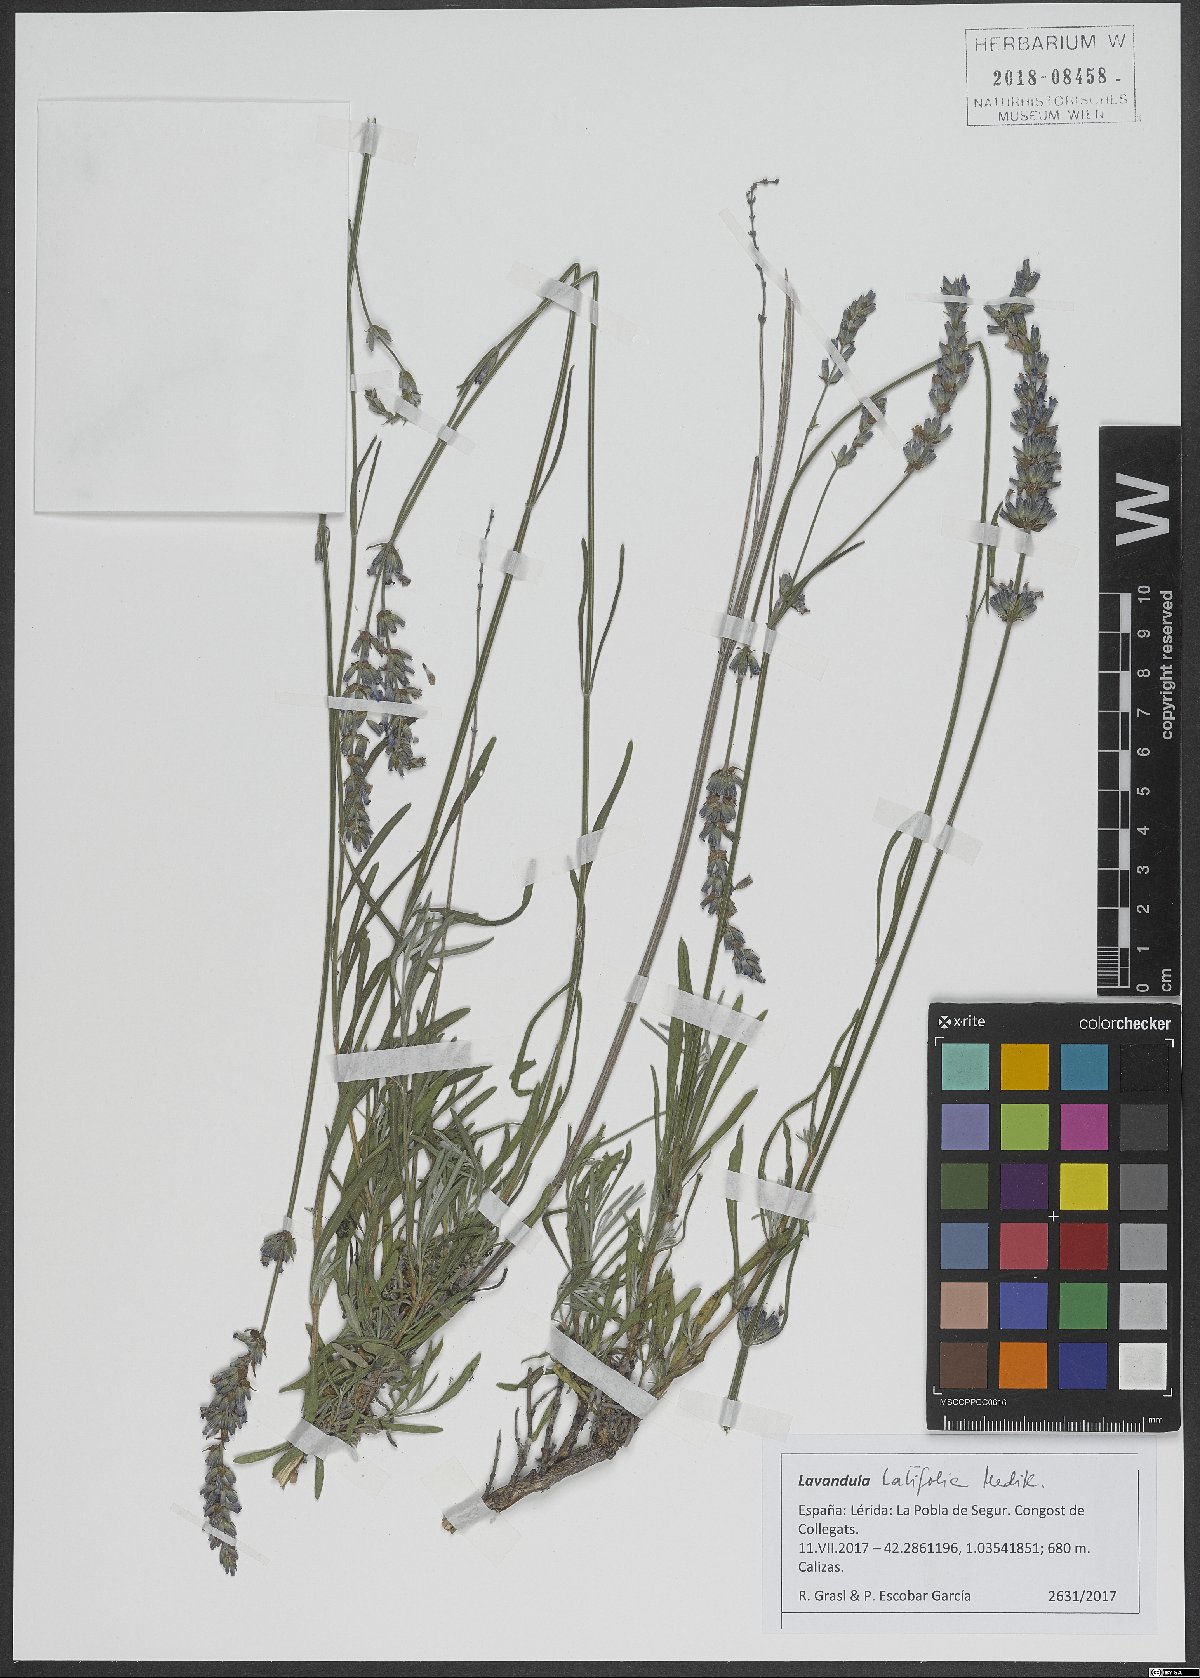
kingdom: Plantae
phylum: Tracheophyta
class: Magnoliopsida
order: Lamiales
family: Lamiaceae
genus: Lavandula
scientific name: Lavandula latifolia
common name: Spike lavendar
